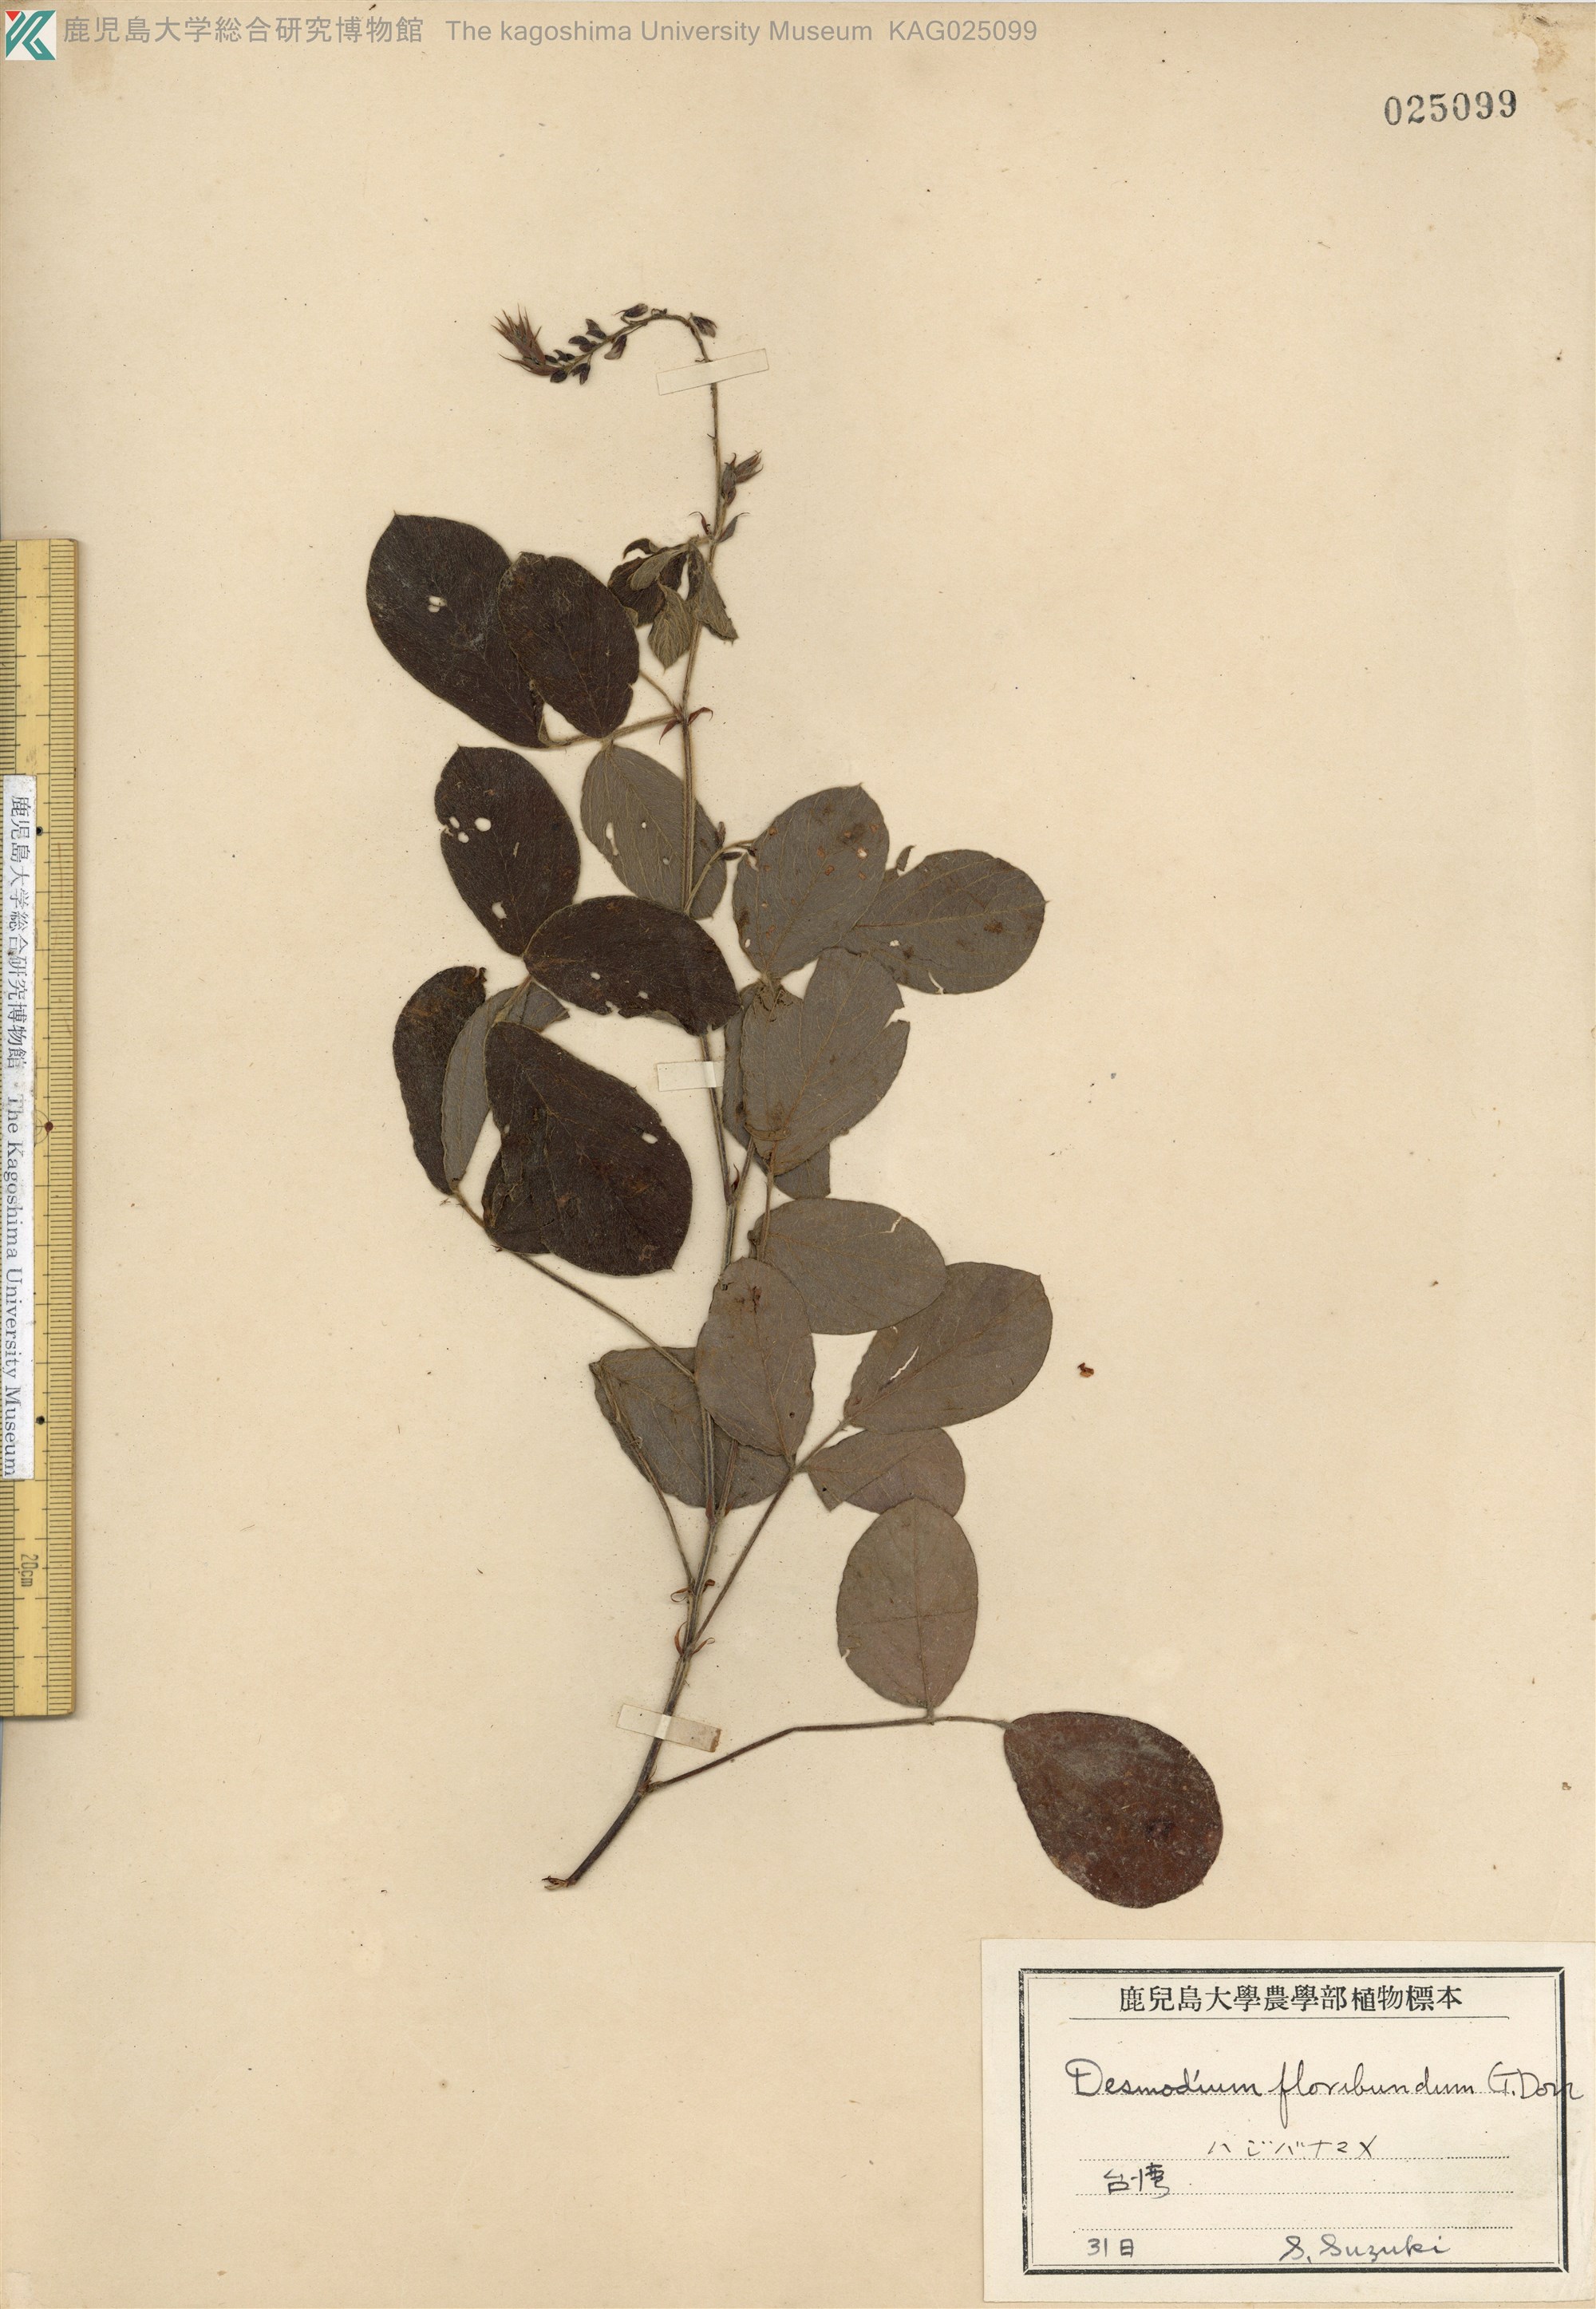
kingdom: Plantae
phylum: Tracheophyta
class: Magnoliopsida
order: Fabales
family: Fabaceae
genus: Ototropis
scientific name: Ototropis multiflora
